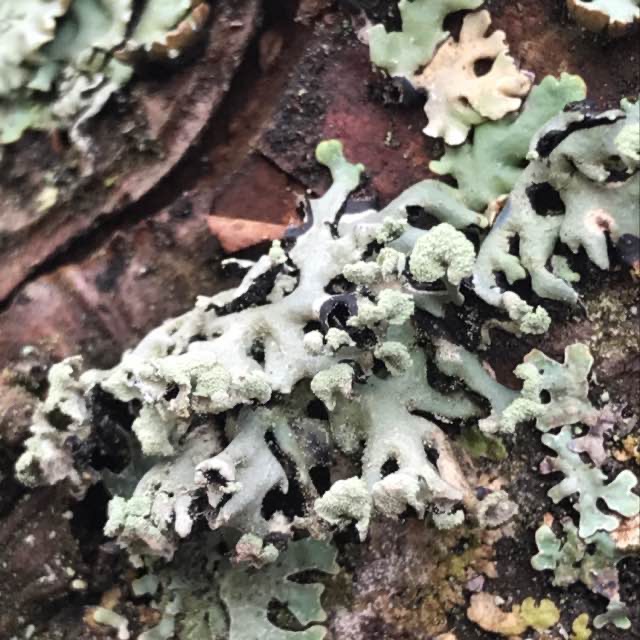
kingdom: Fungi
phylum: Ascomycota
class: Lecanoromycetes
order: Lecanorales
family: Parmeliaceae
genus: Hypogymnia
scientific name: Hypogymnia physodes
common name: Almindelig kvistlav
